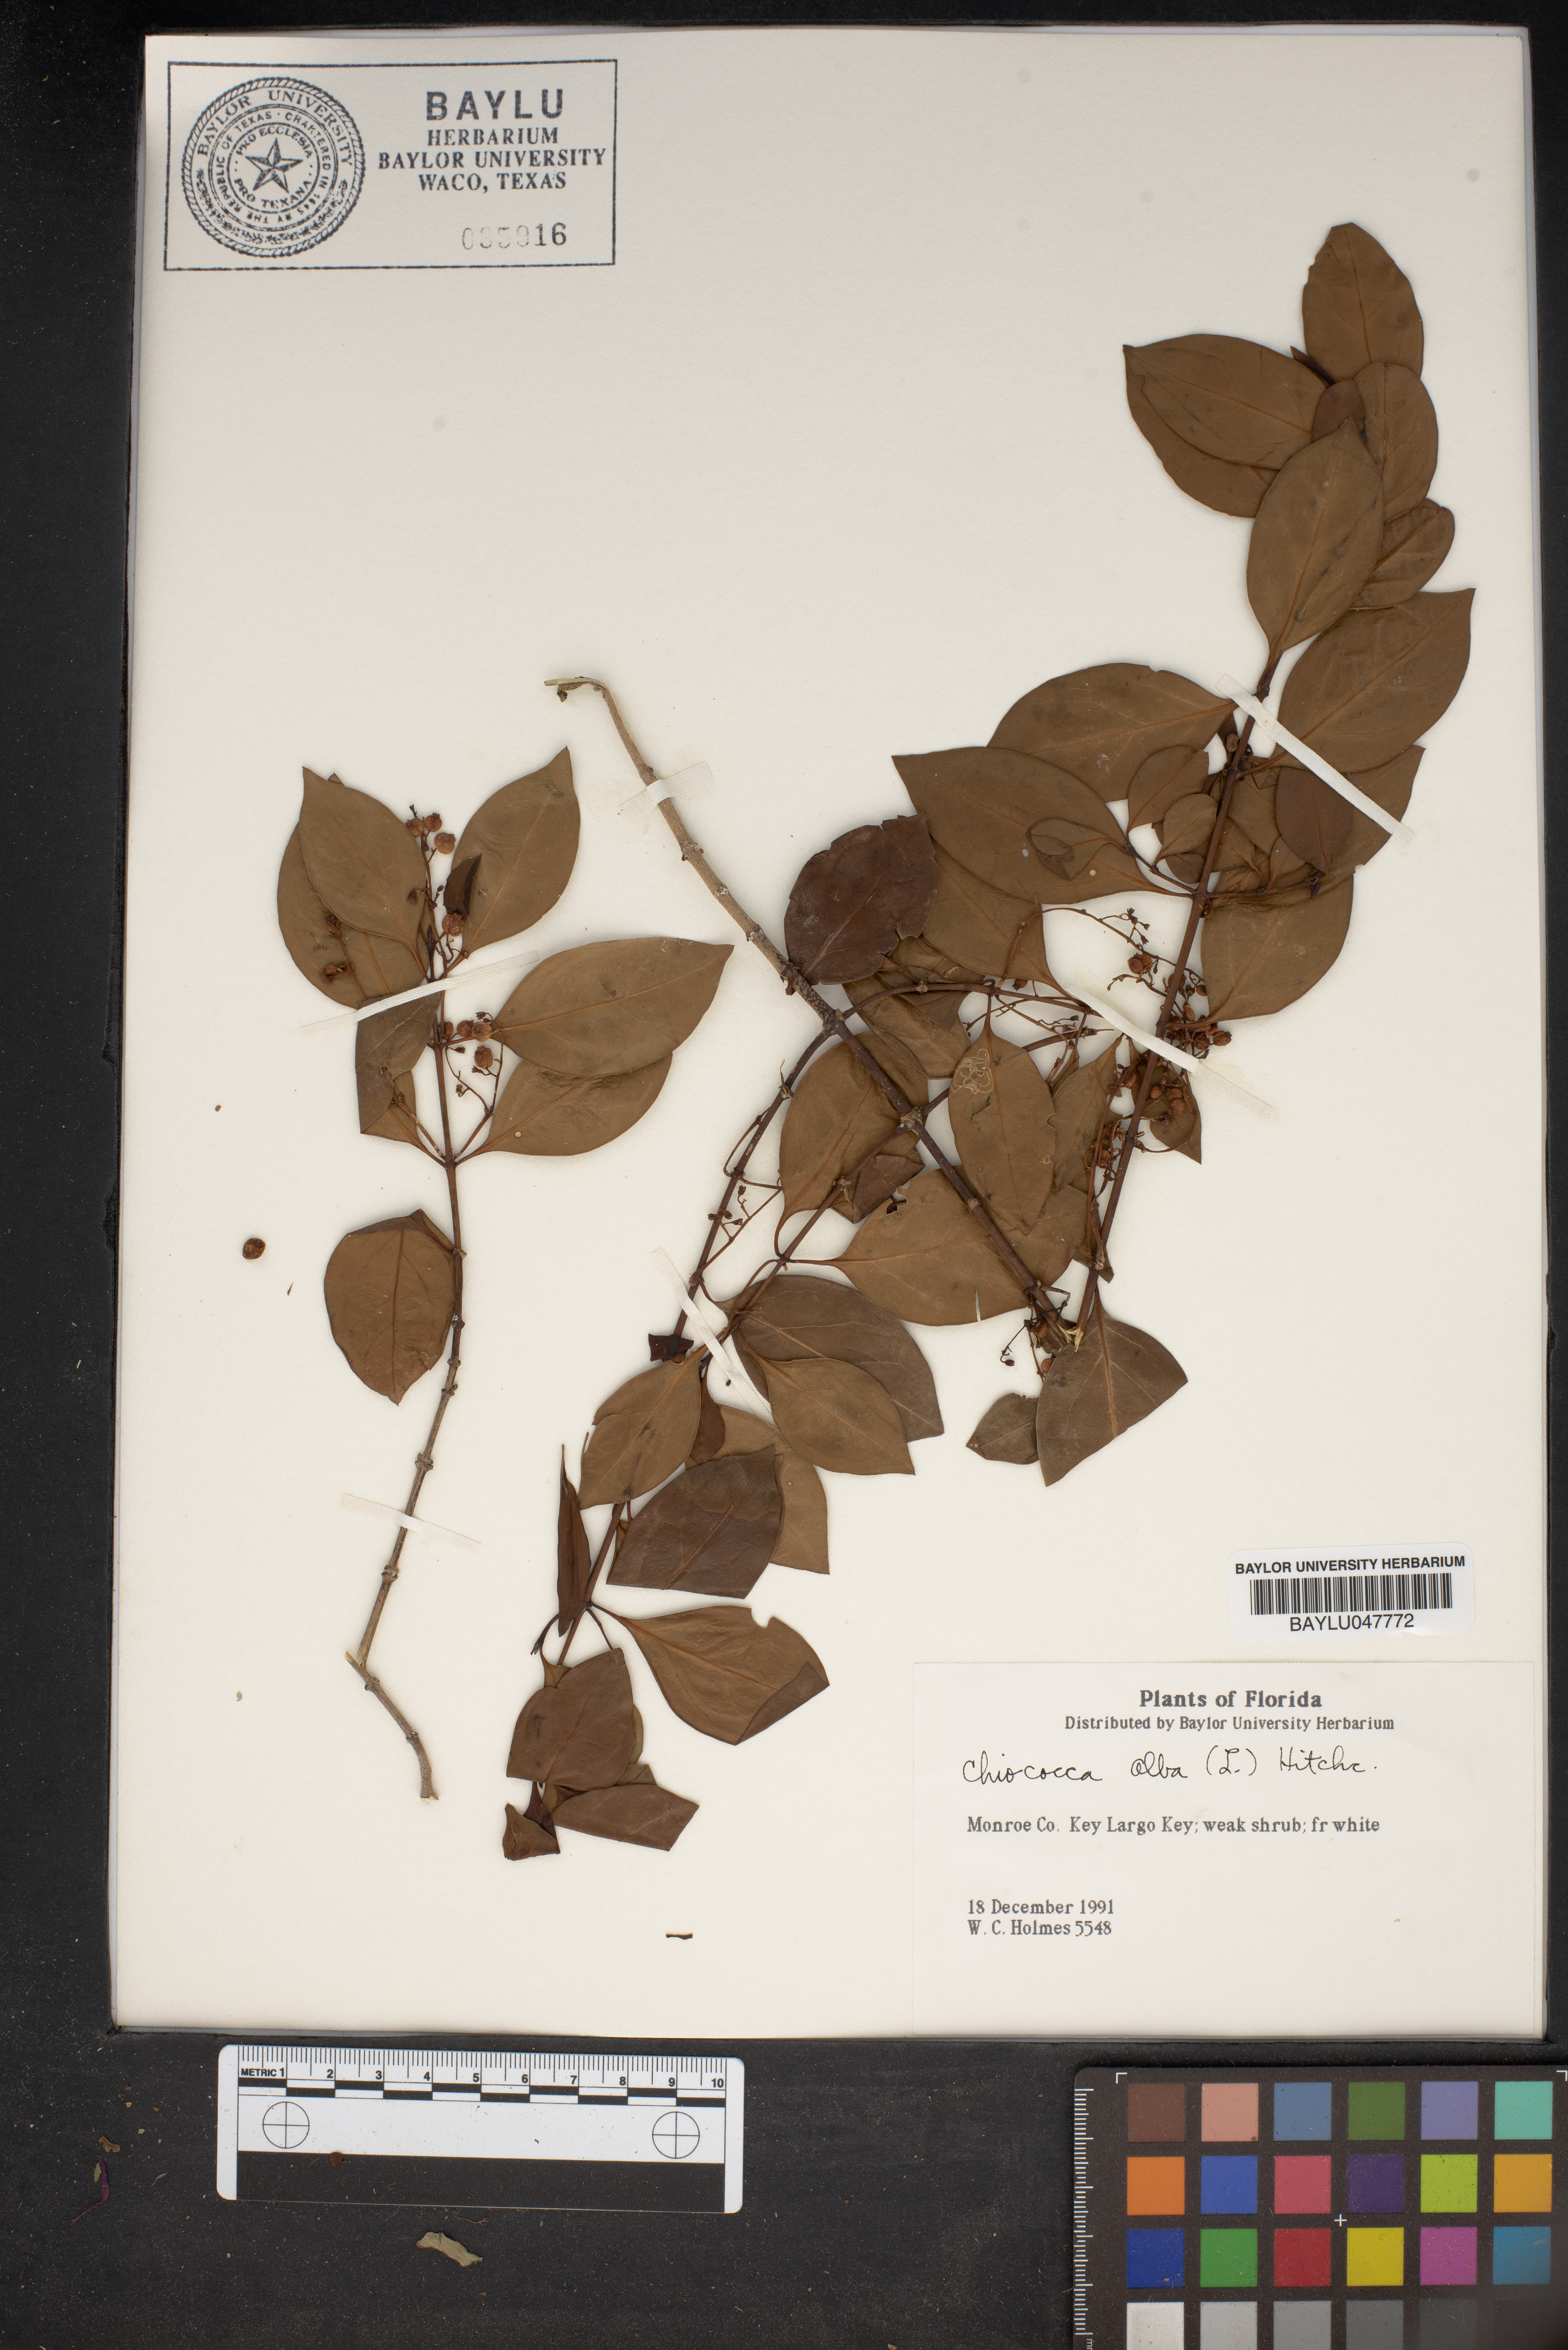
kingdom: Plantae
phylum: Tracheophyta
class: Magnoliopsida
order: Gentianales
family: Rubiaceae
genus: Chiococca
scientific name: Chiococca alba
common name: Snowberry
